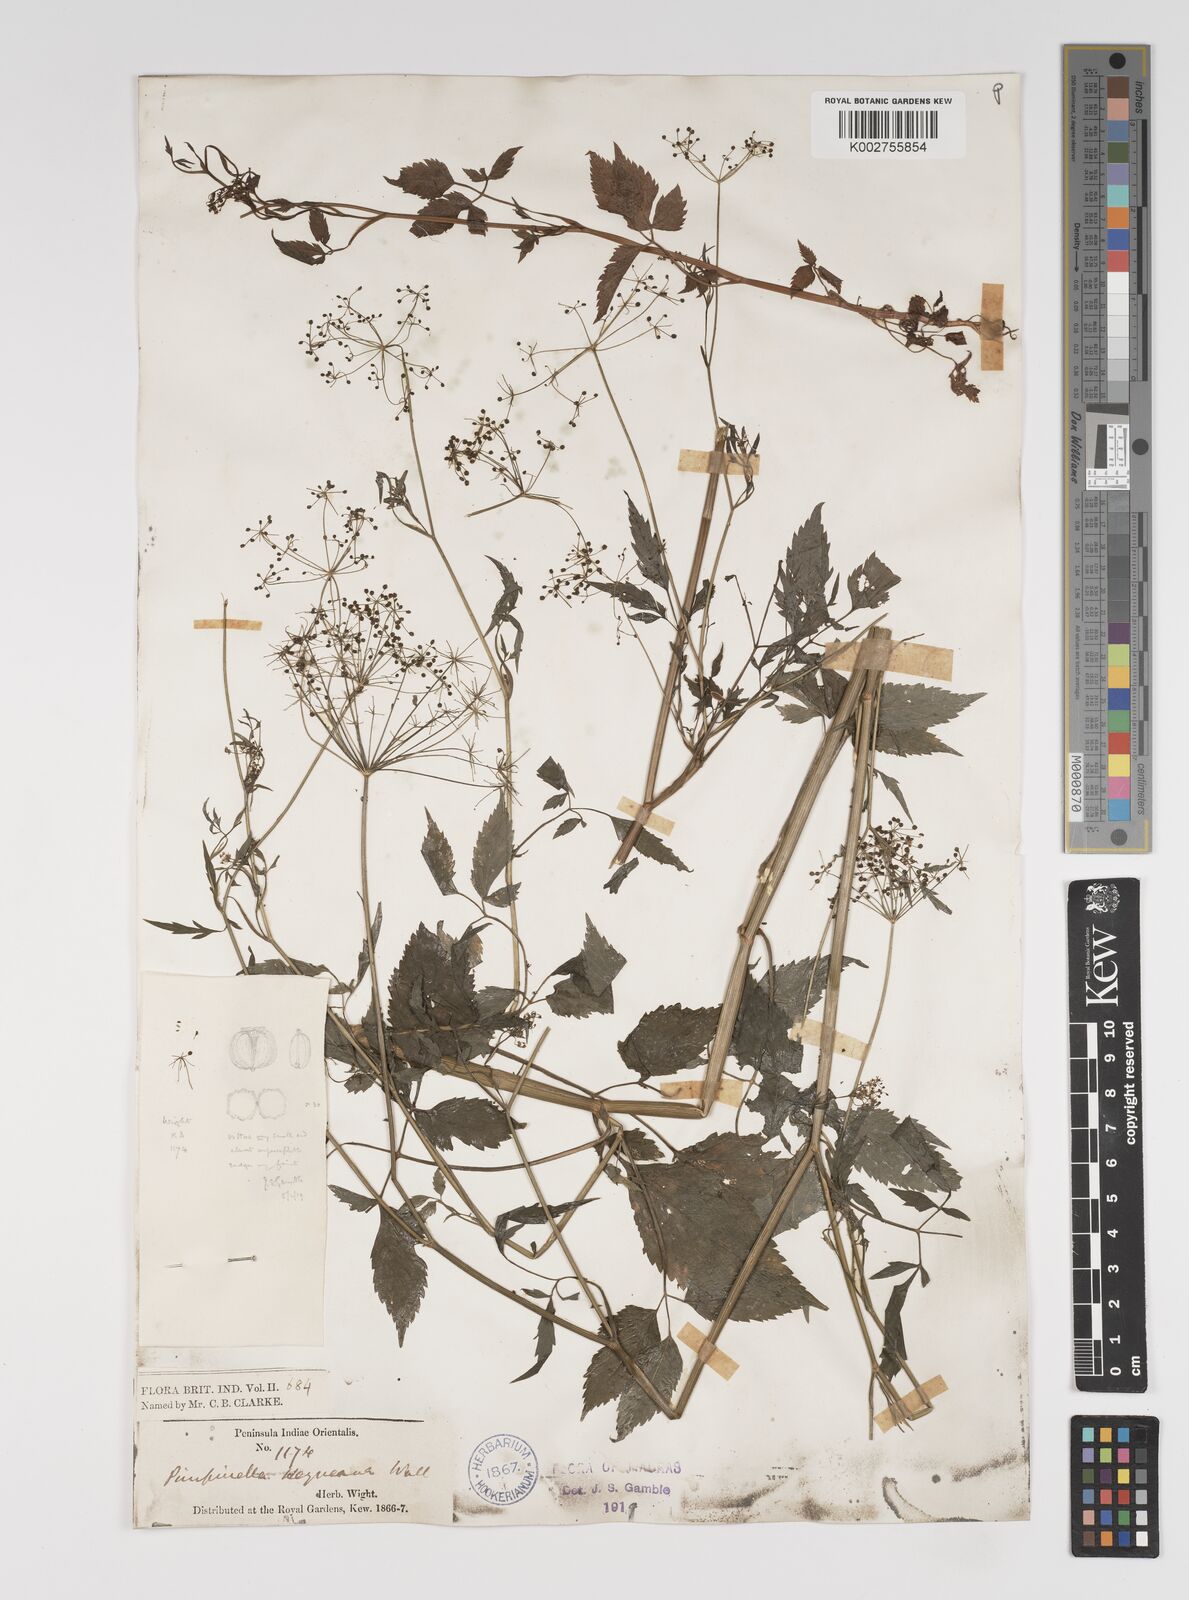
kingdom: Plantae
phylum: Tracheophyta
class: Magnoliopsida
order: Apiales
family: Apiaceae
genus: Pimpinella
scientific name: Pimpinella heyneana
